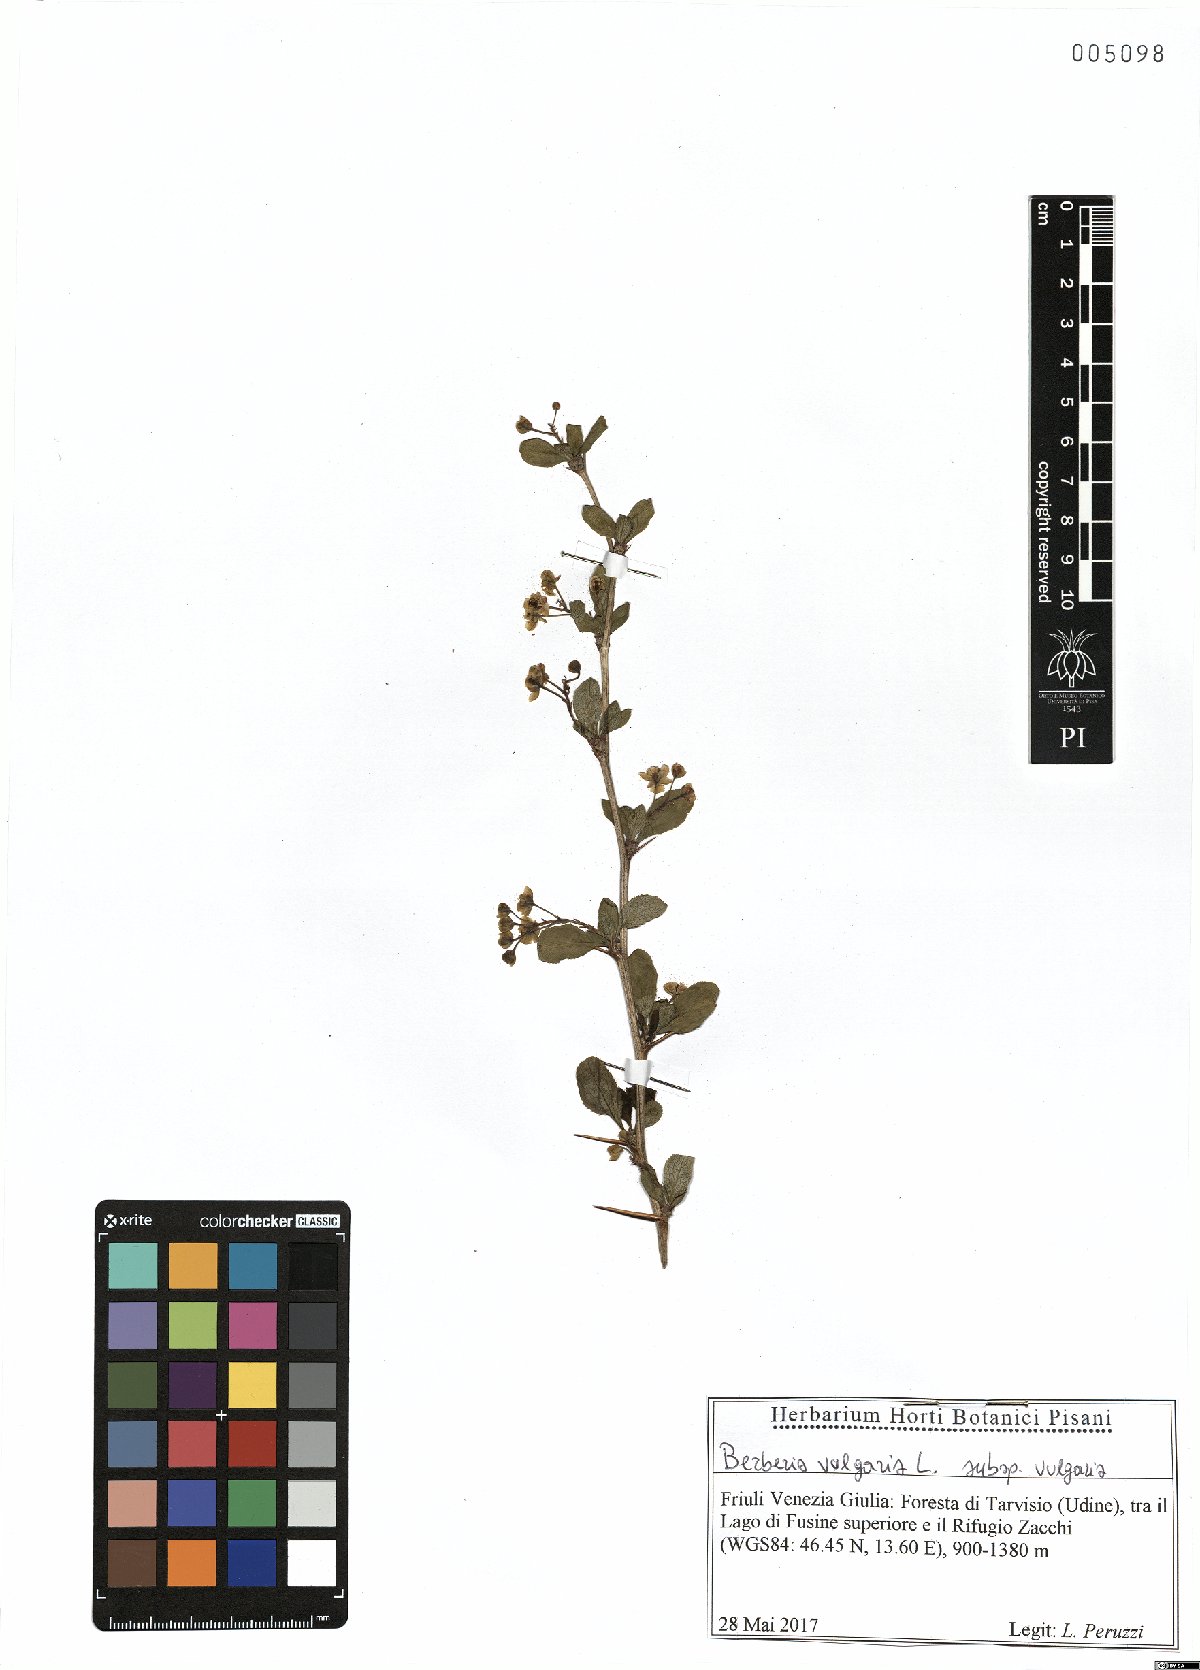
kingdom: Plantae
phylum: Tracheophyta
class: Magnoliopsida
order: Ranunculales
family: Berberidaceae
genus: Berberis
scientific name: Berberis vulgaris
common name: Barberry
